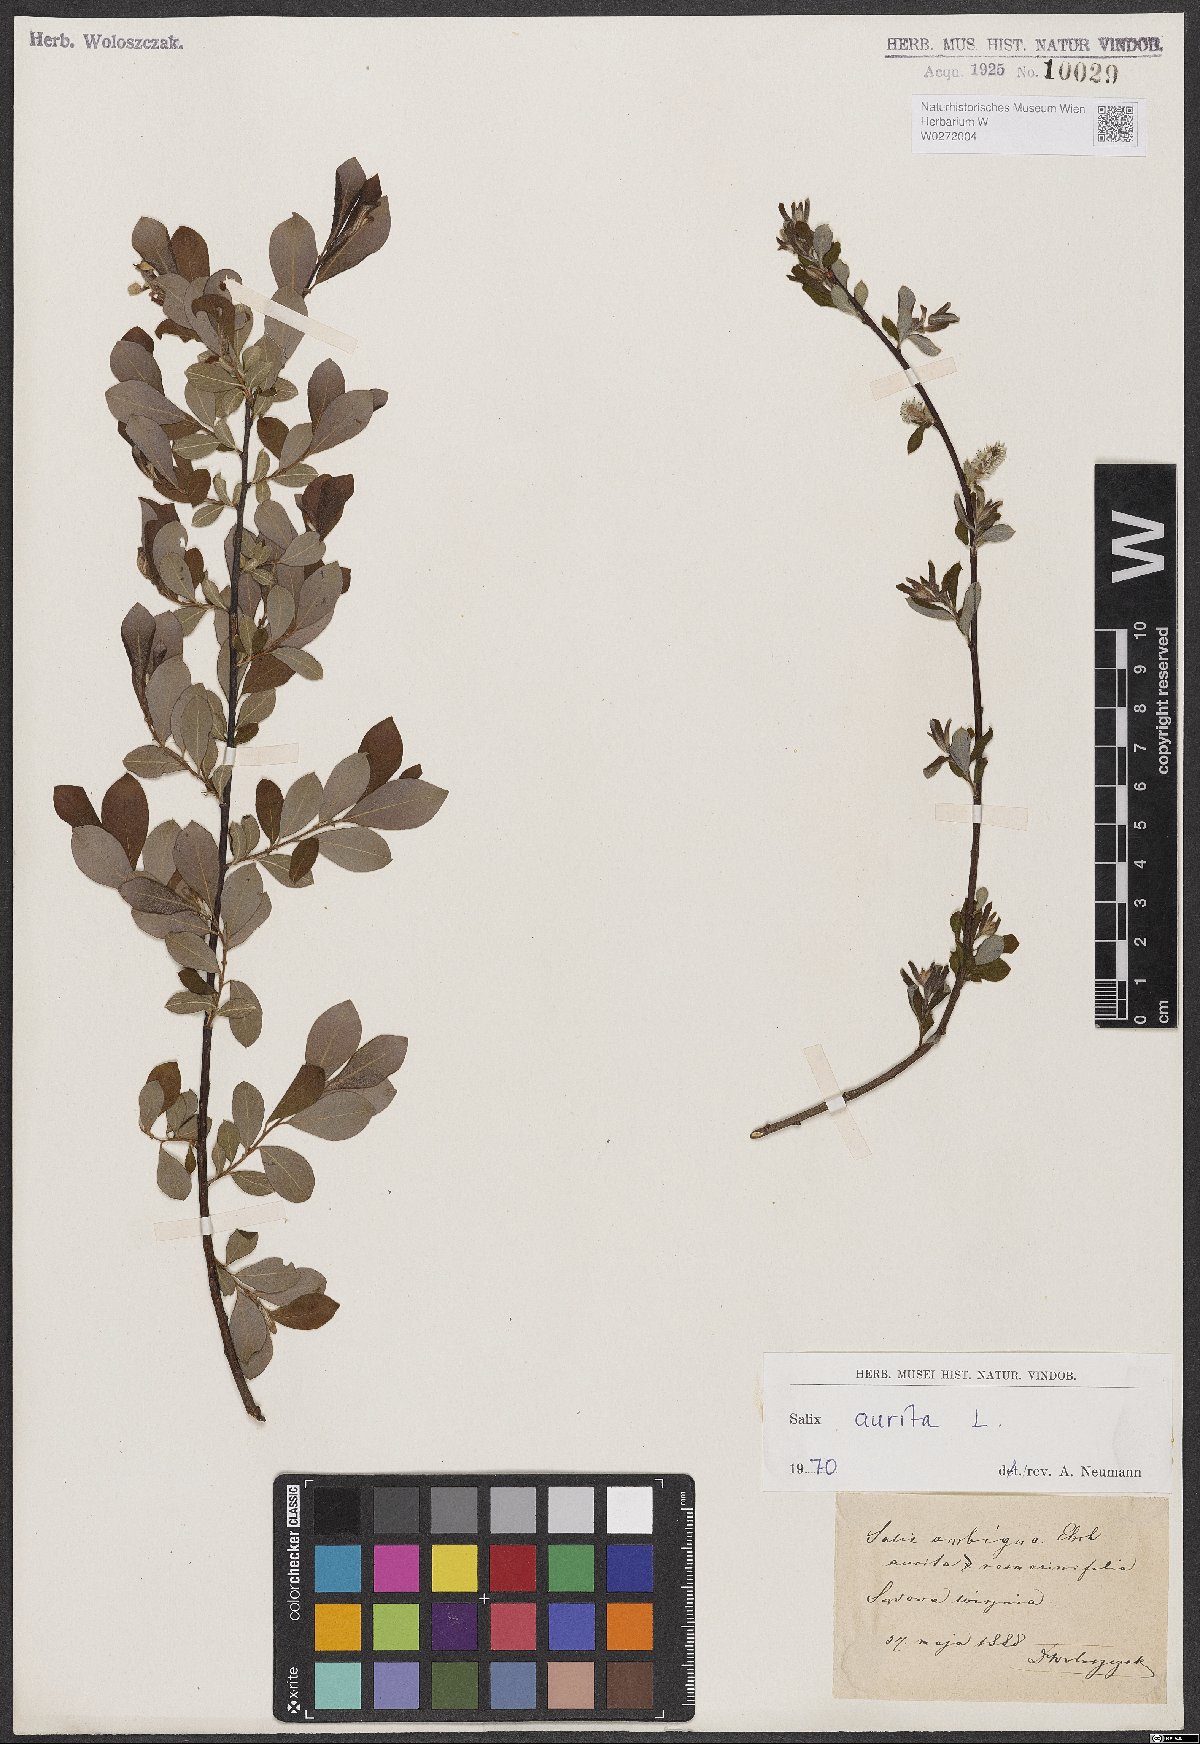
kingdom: Plantae
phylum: Tracheophyta
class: Magnoliopsida
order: Malpighiales
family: Salicaceae
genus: Salix
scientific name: Salix aurita
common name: Eared willow
